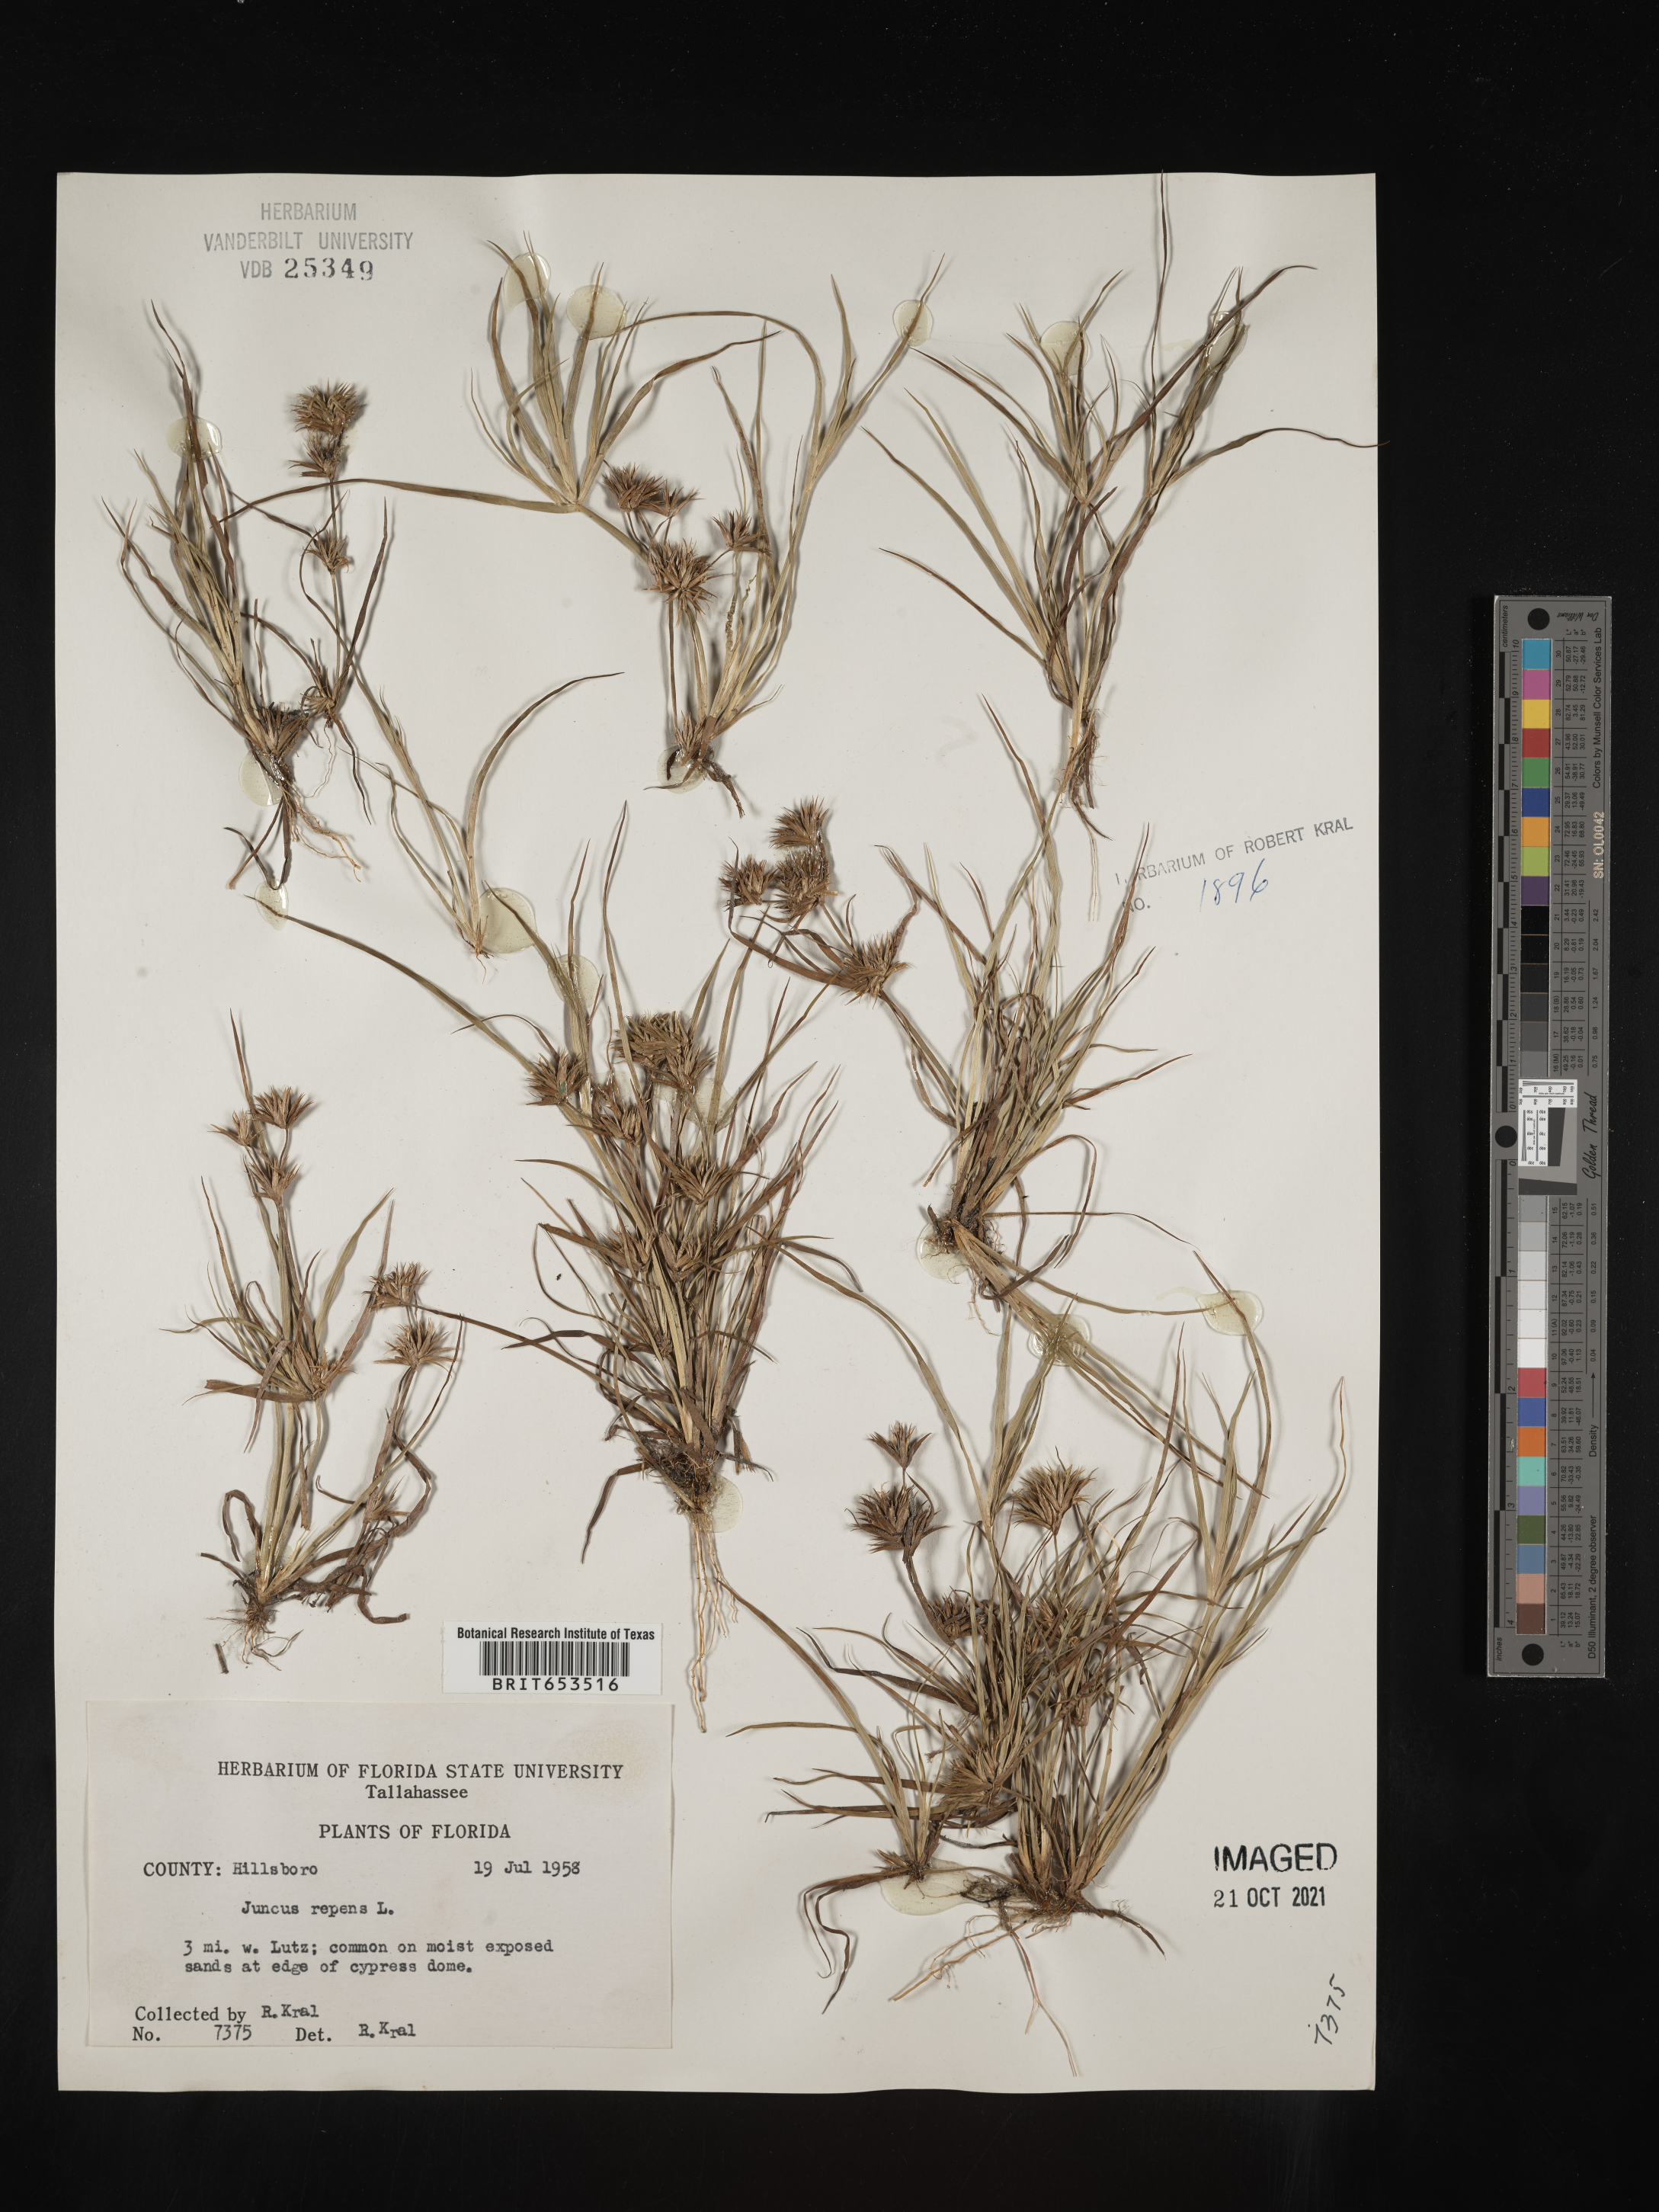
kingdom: Plantae
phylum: Tracheophyta
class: Liliopsida
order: Poales
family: Juncaceae
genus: Juncus
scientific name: Juncus repens
